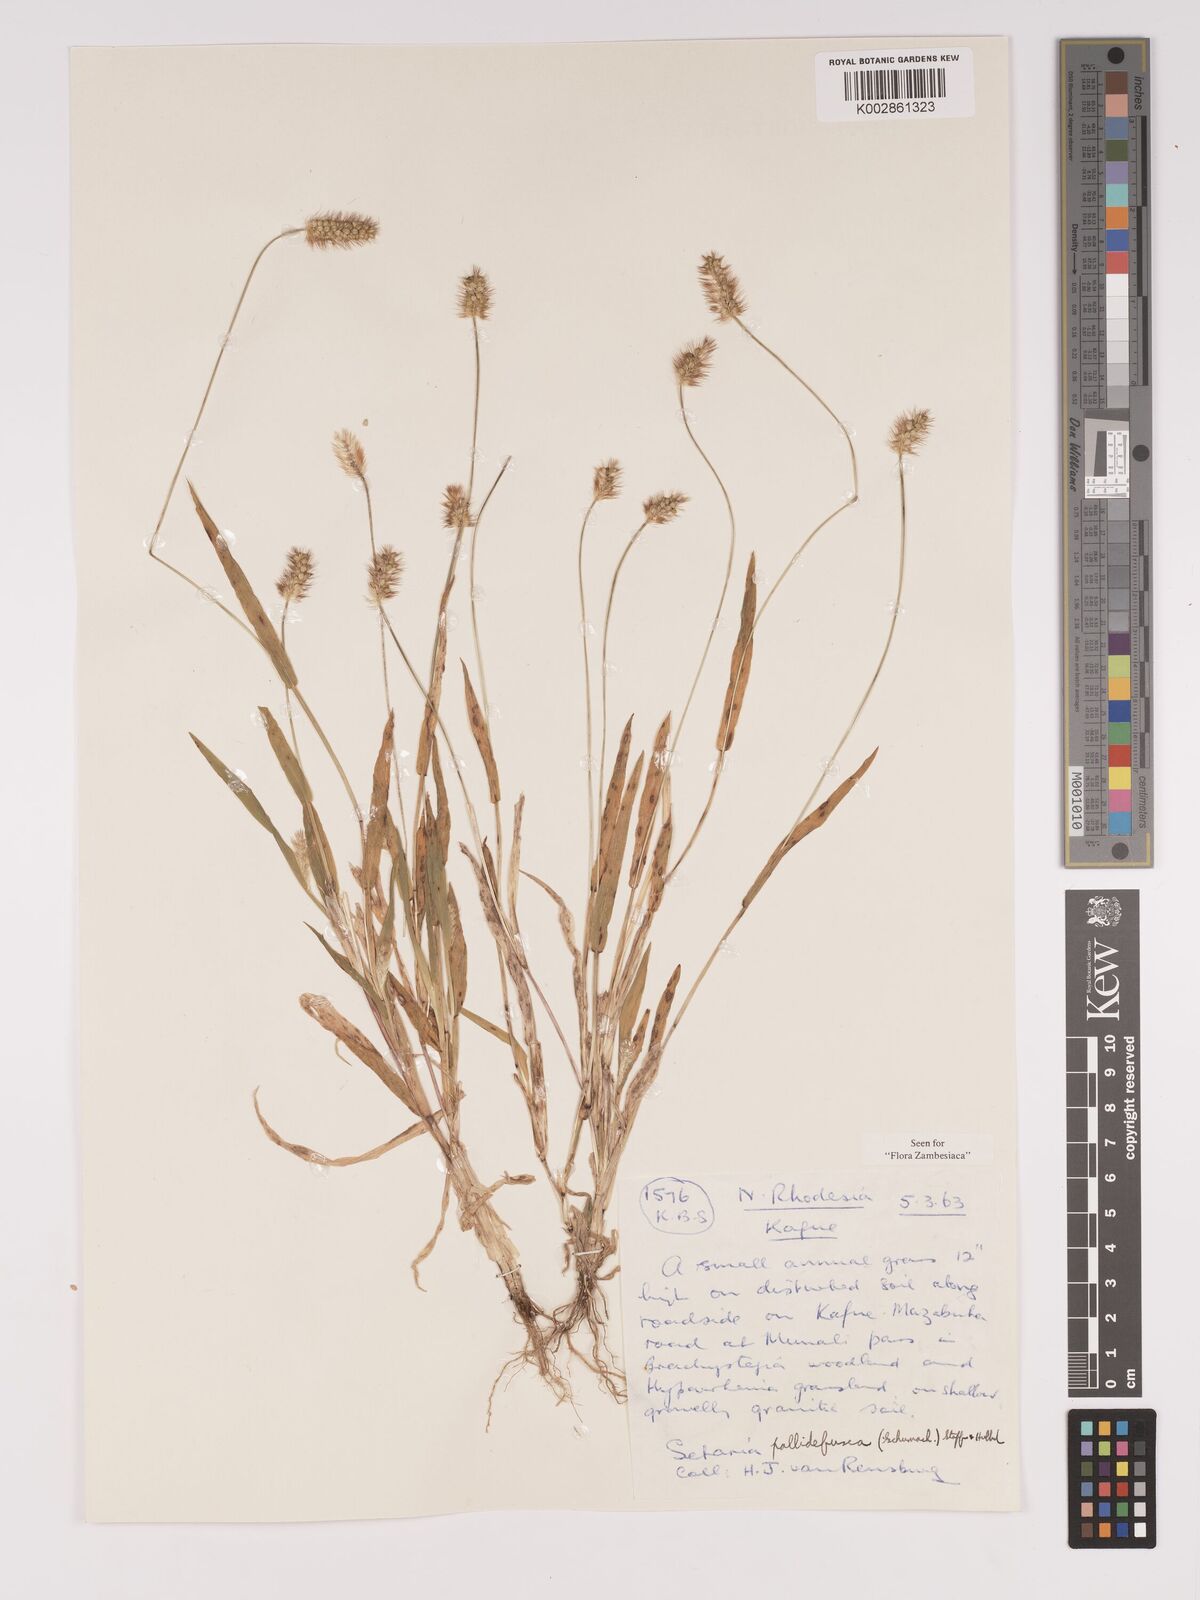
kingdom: Plantae
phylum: Tracheophyta
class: Liliopsida
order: Poales
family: Poaceae
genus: Setaria
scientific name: Setaria pumila
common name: Yellow bristle-grass
